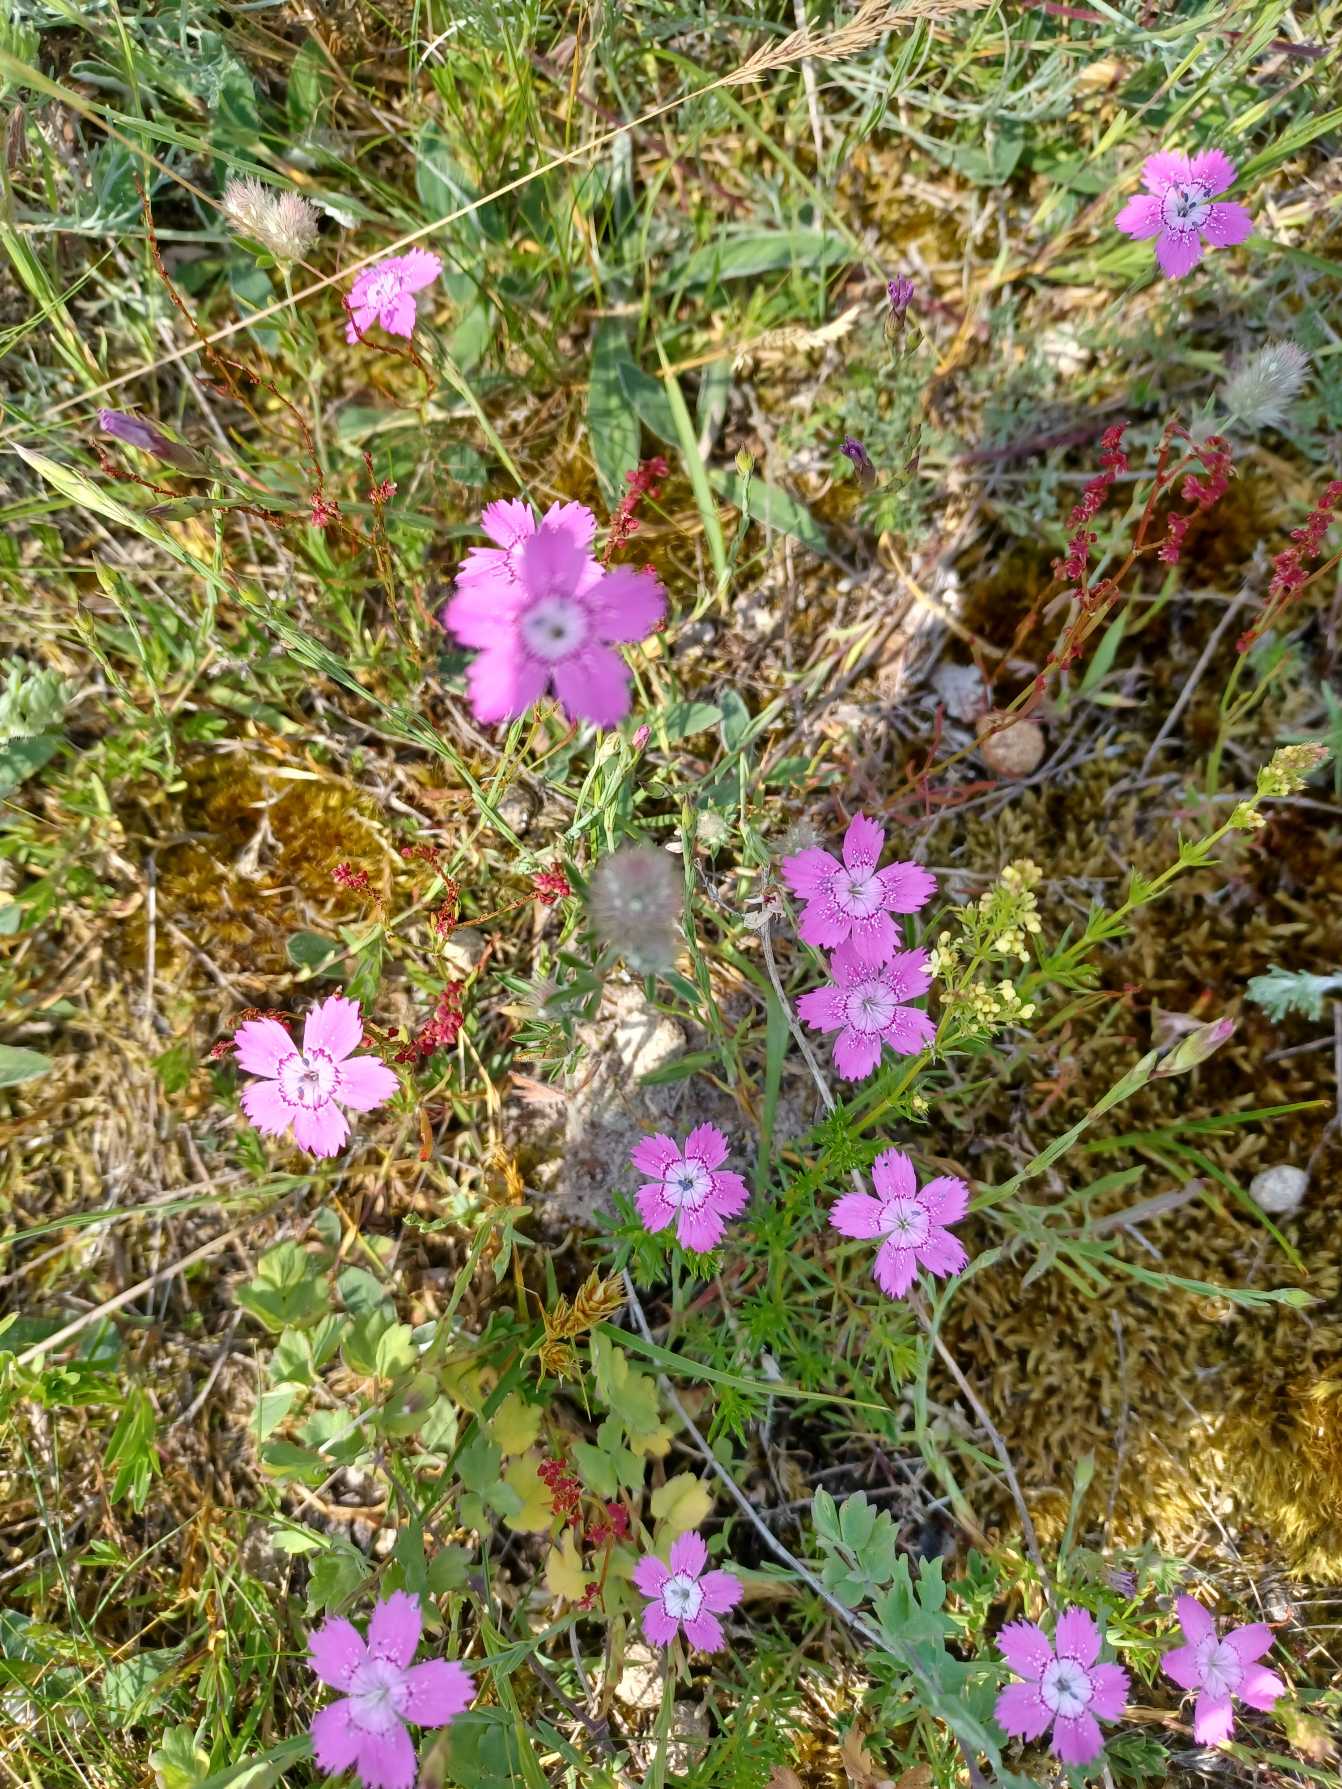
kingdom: Plantae
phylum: Tracheophyta
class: Magnoliopsida
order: Caryophyllales
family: Caryophyllaceae
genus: Dianthus
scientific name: Dianthus deltoides
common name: Bakke-nellike
